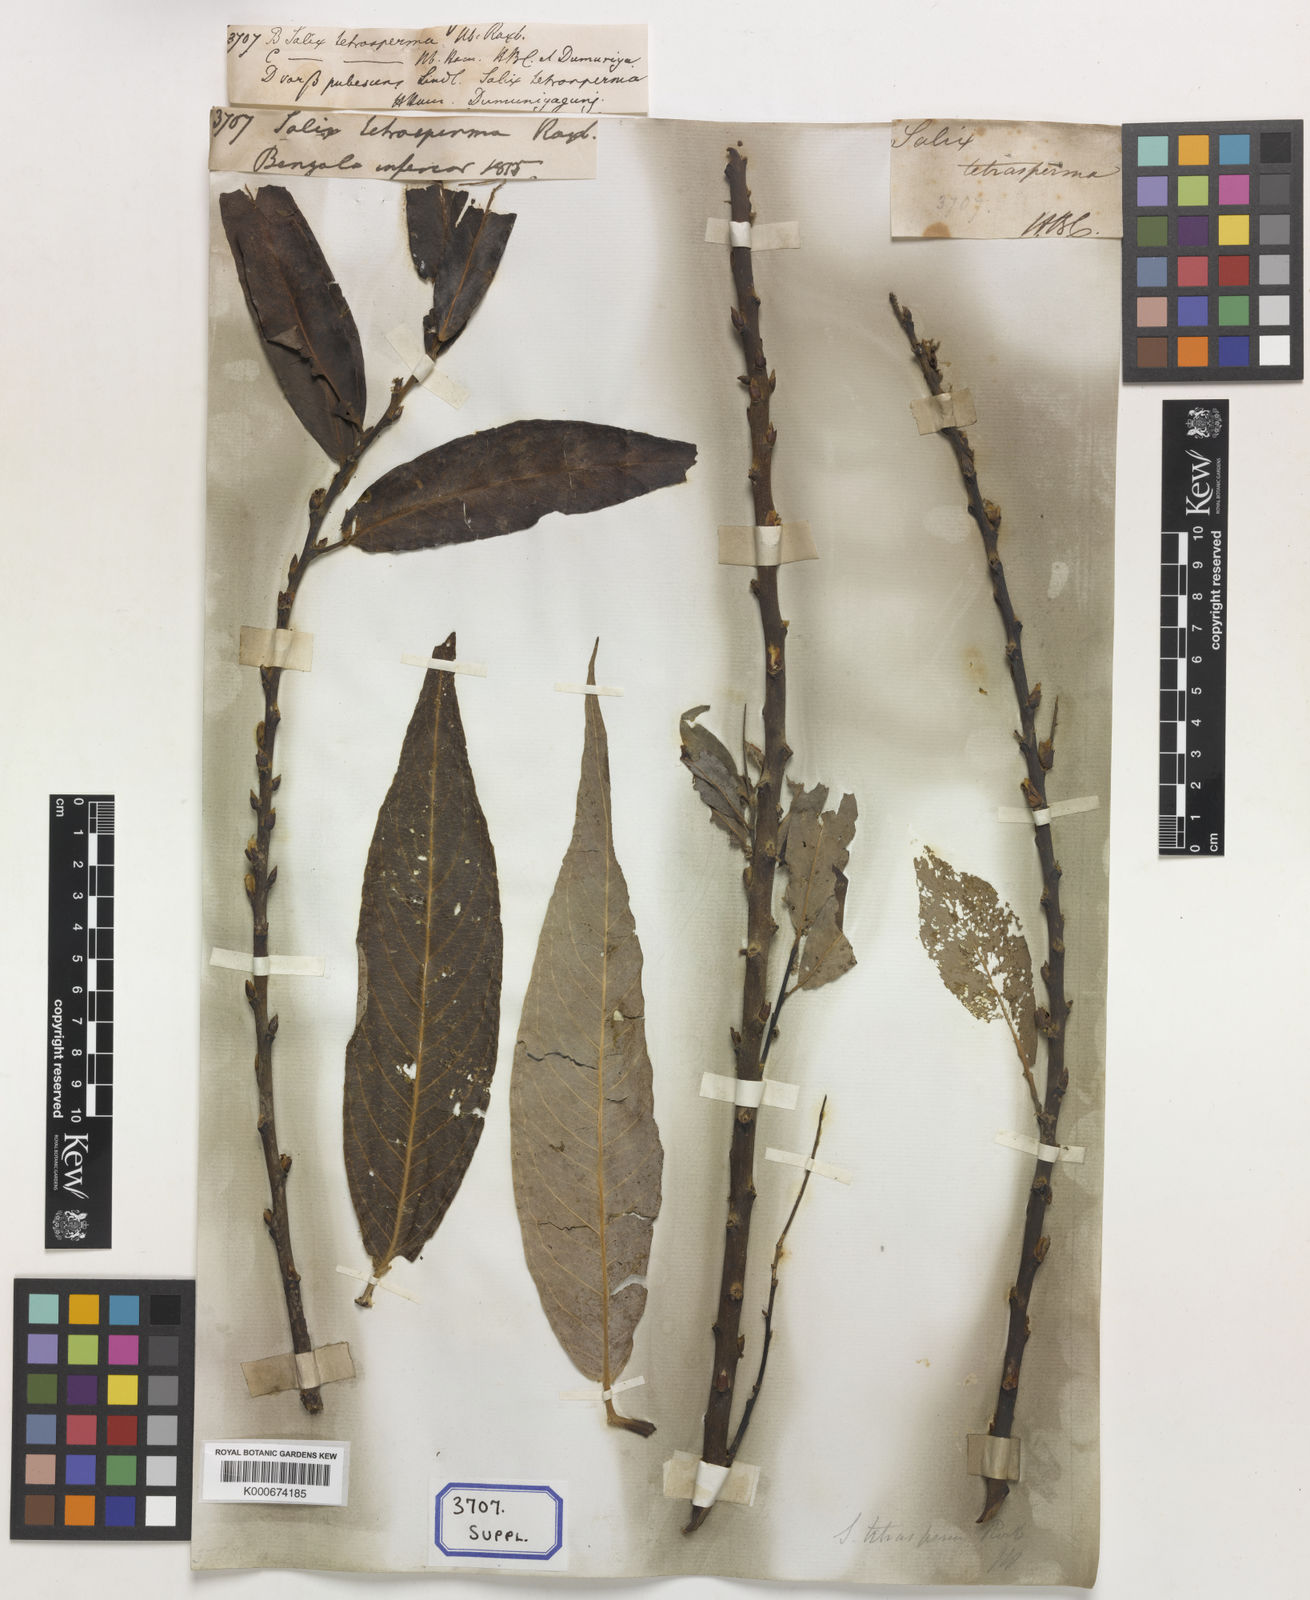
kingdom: Plantae
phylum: Tracheophyta
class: Magnoliopsida
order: Malpighiales
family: Salicaceae
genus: Salix
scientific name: Salix tetrasperma
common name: Indian willow
